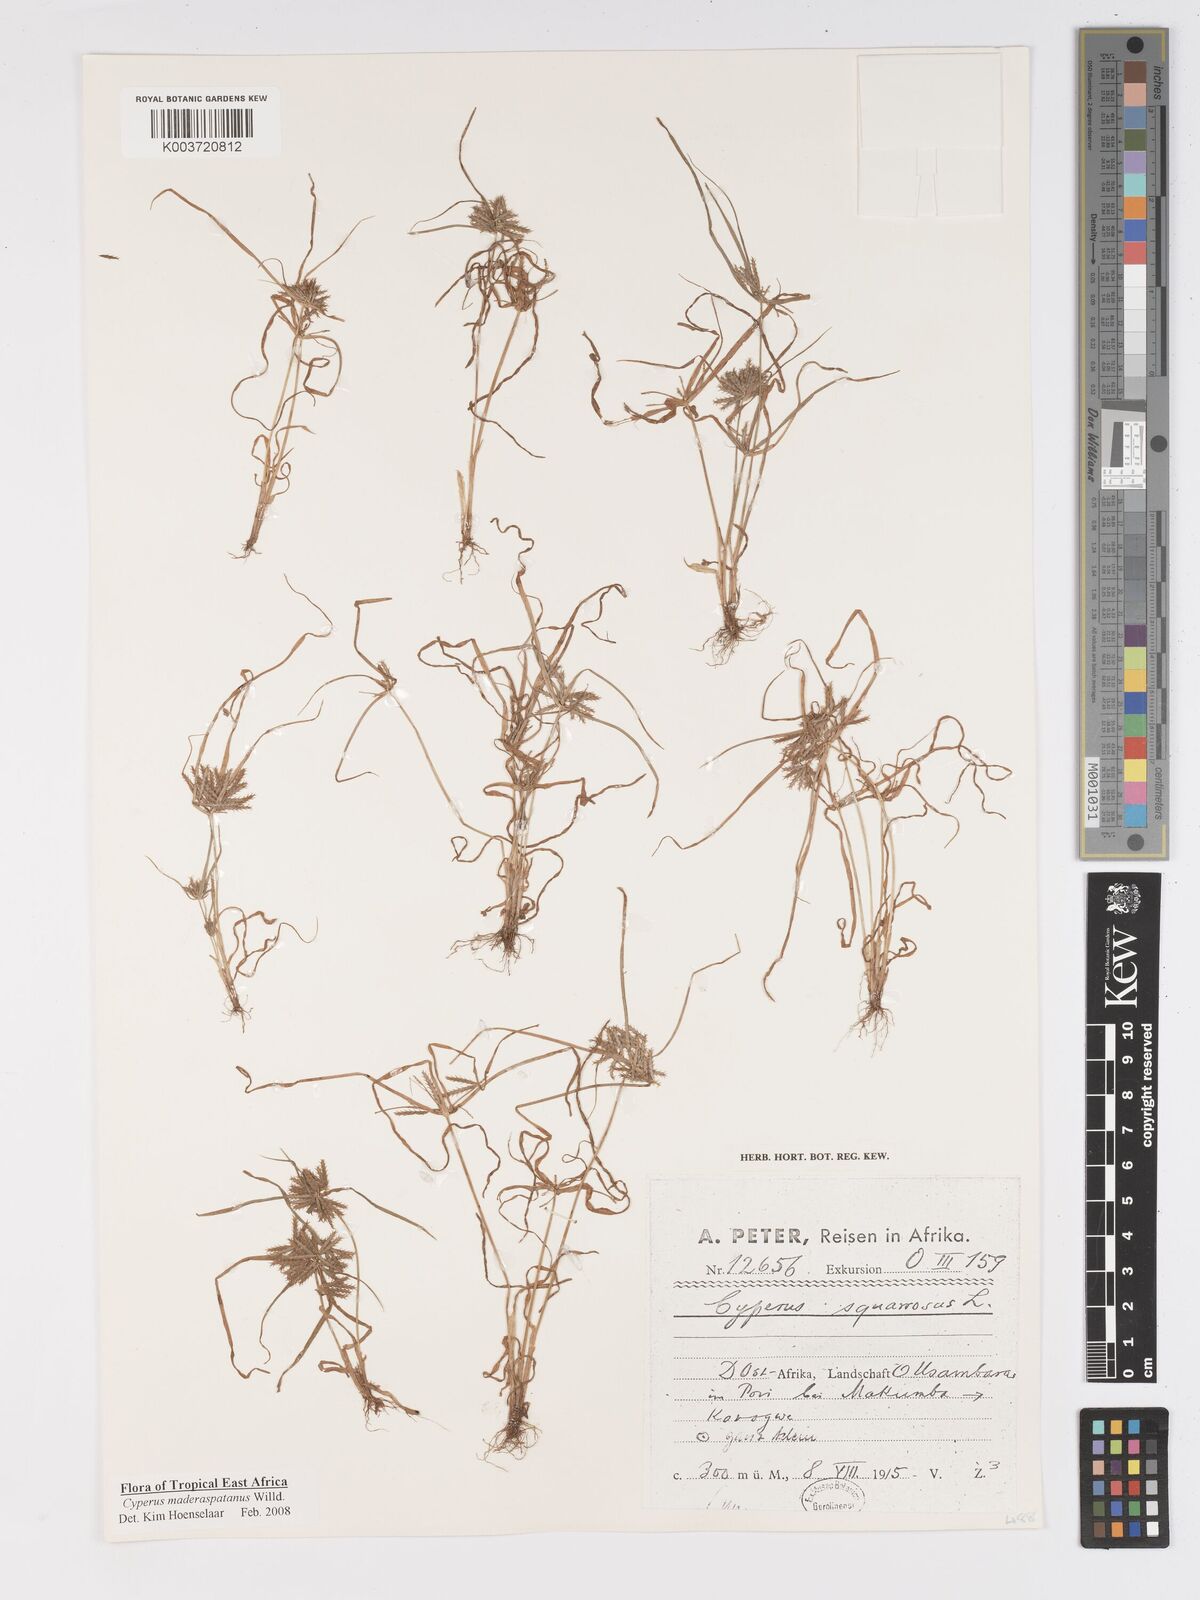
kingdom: Plantae
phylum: Tracheophyta
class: Liliopsida
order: Poales
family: Cyperaceae
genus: Cyperus
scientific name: Cyperus maderaspatanus
